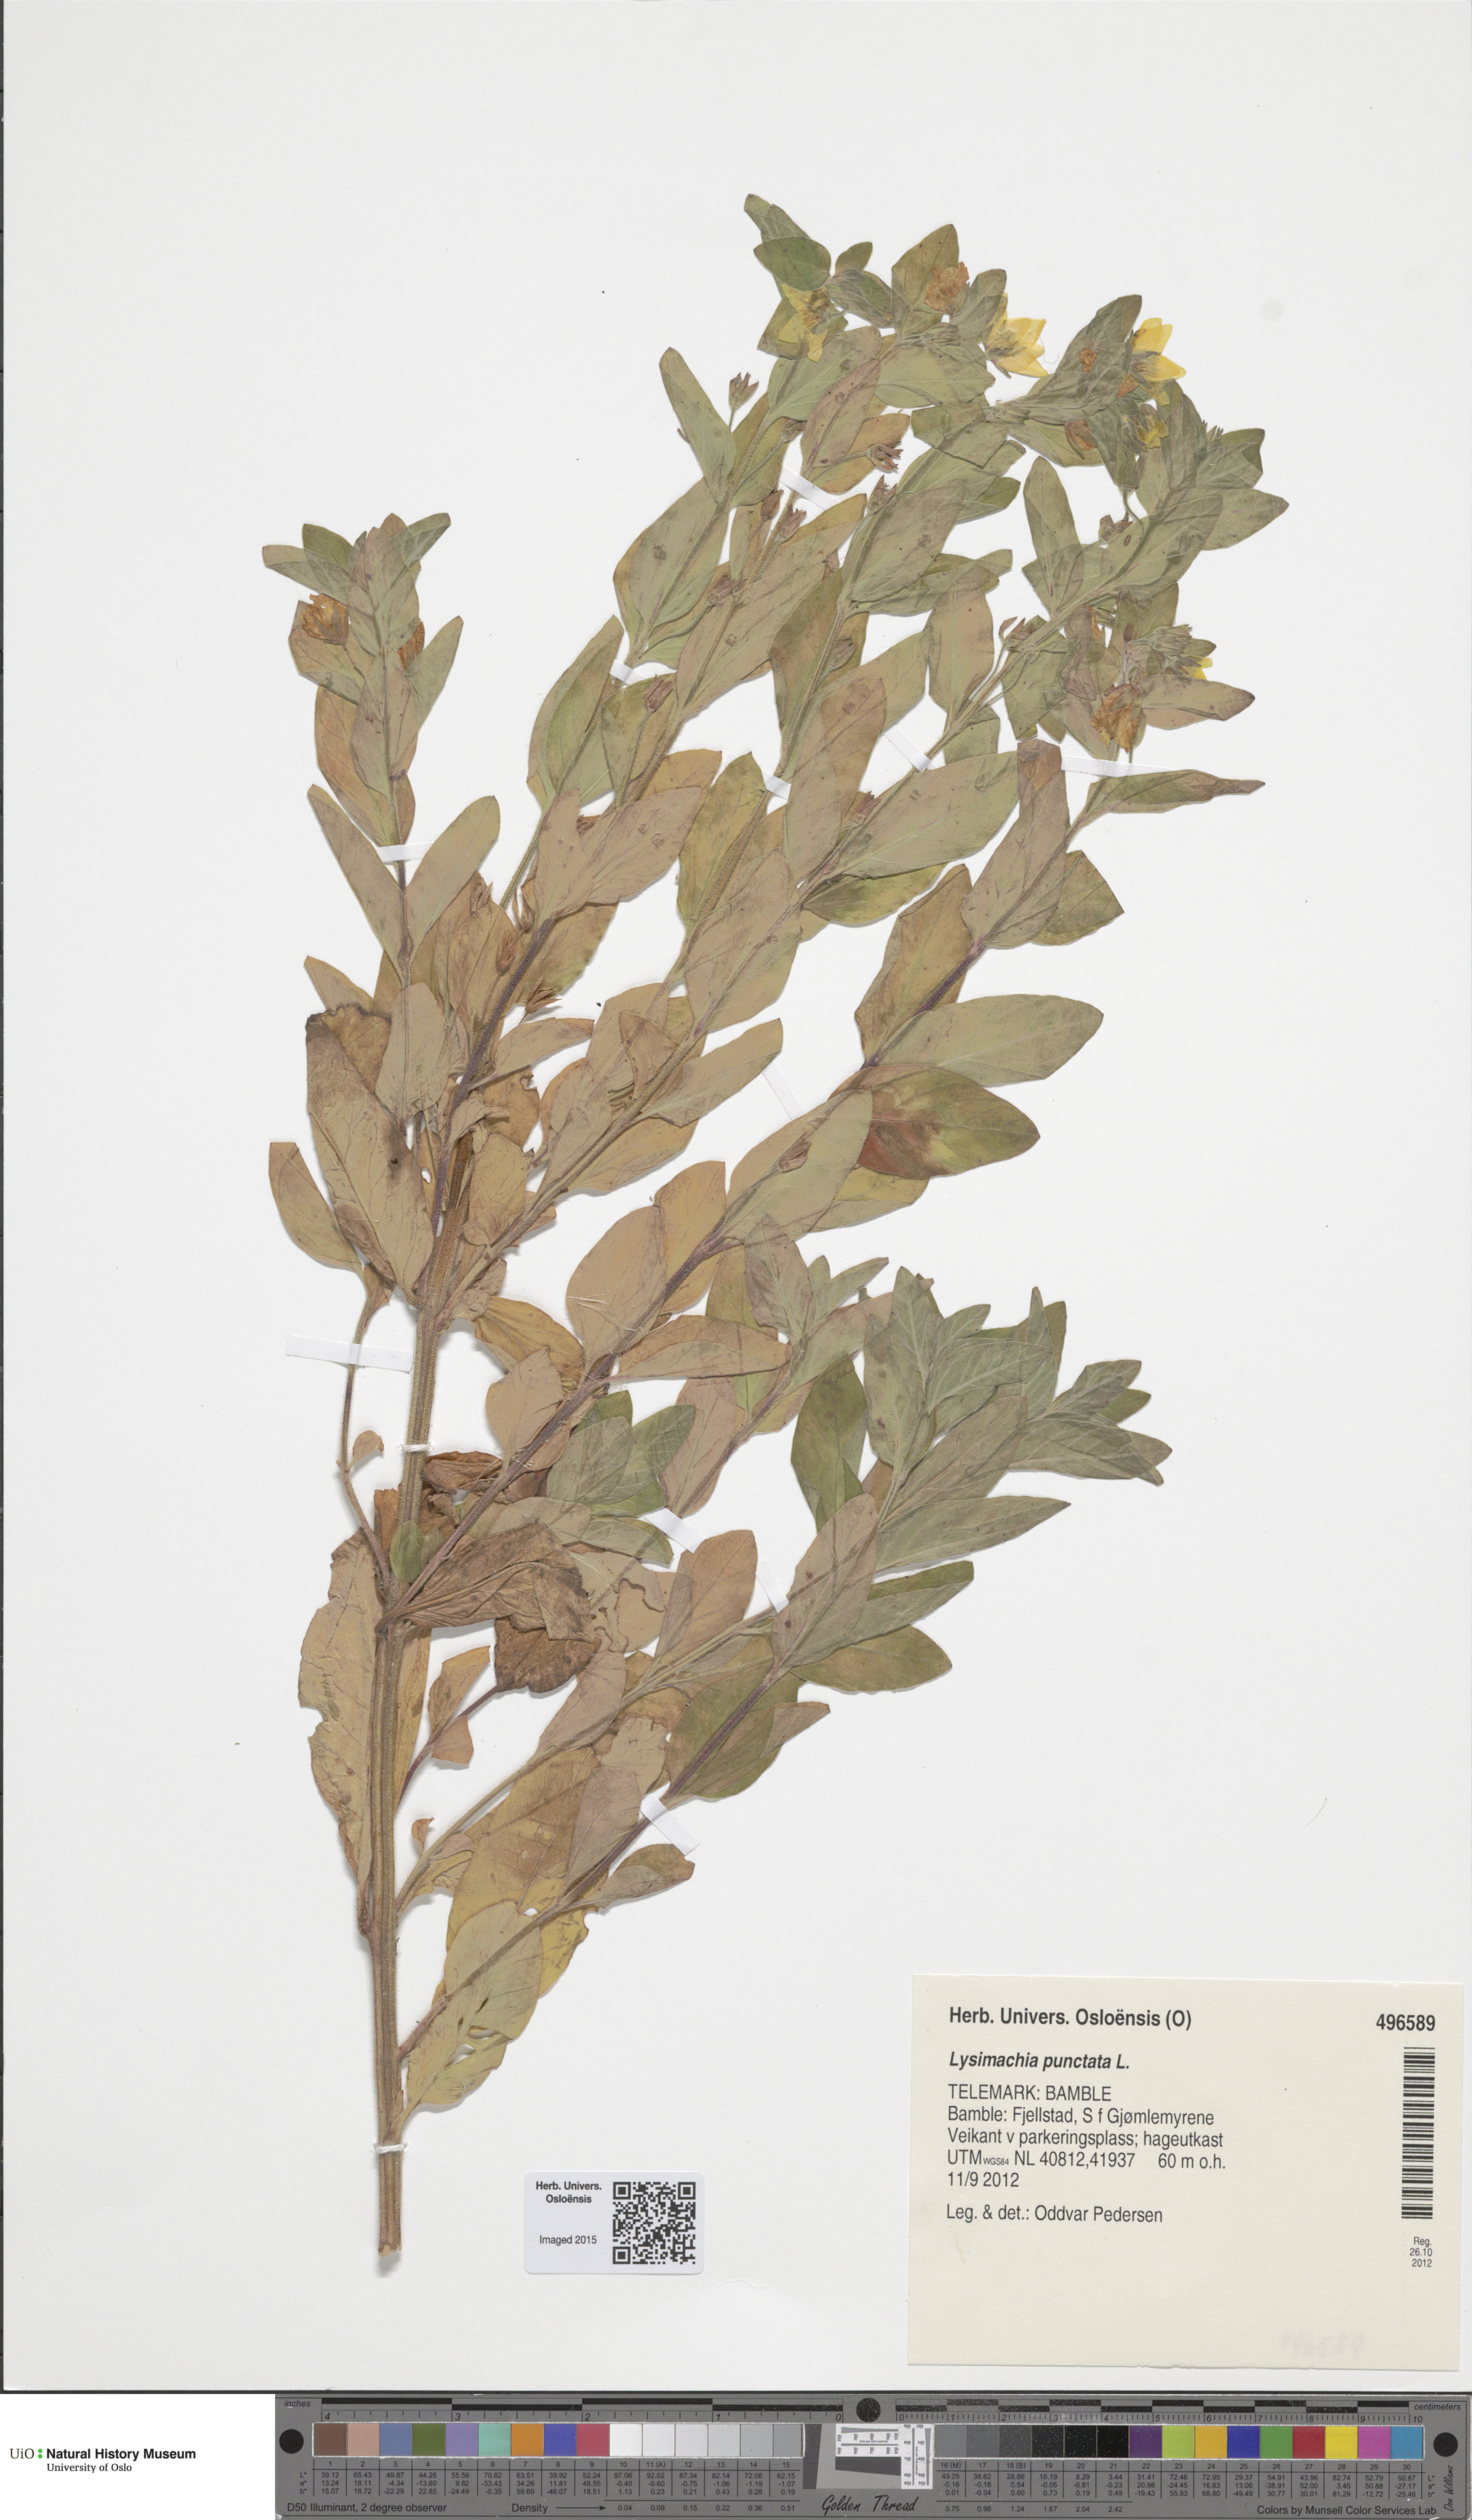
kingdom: Plantae
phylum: Tracheophyta
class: Magnoliopsida
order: Ericales
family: Primulaceae
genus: Lysimachia
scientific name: Lysimachia punctata
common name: Dotted loosestrife
